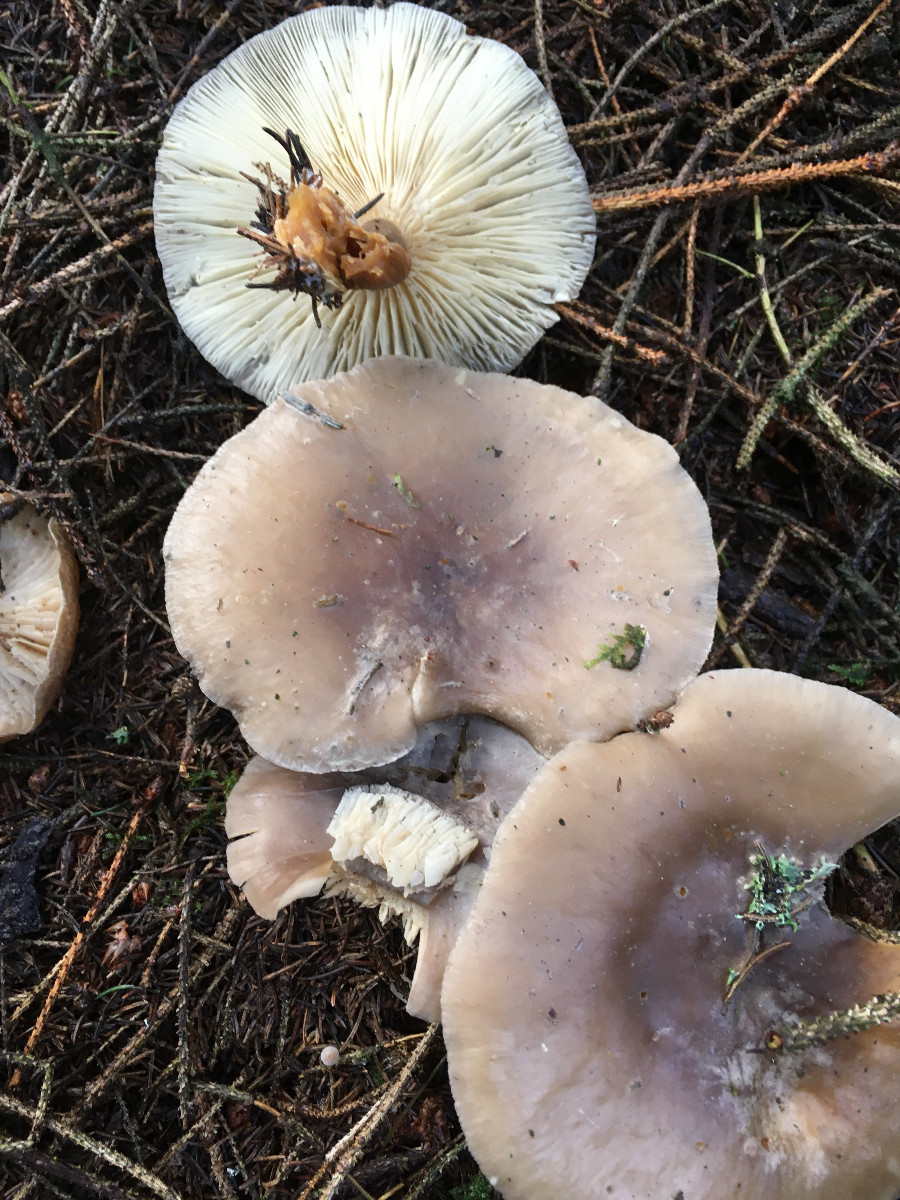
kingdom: Fungi
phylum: Basidiomycota
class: Agaricomycetes
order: Agaricales
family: Tricholomataceae
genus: Clitocybe
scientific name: Clitocybe nebularis
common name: tåge-tragthat
